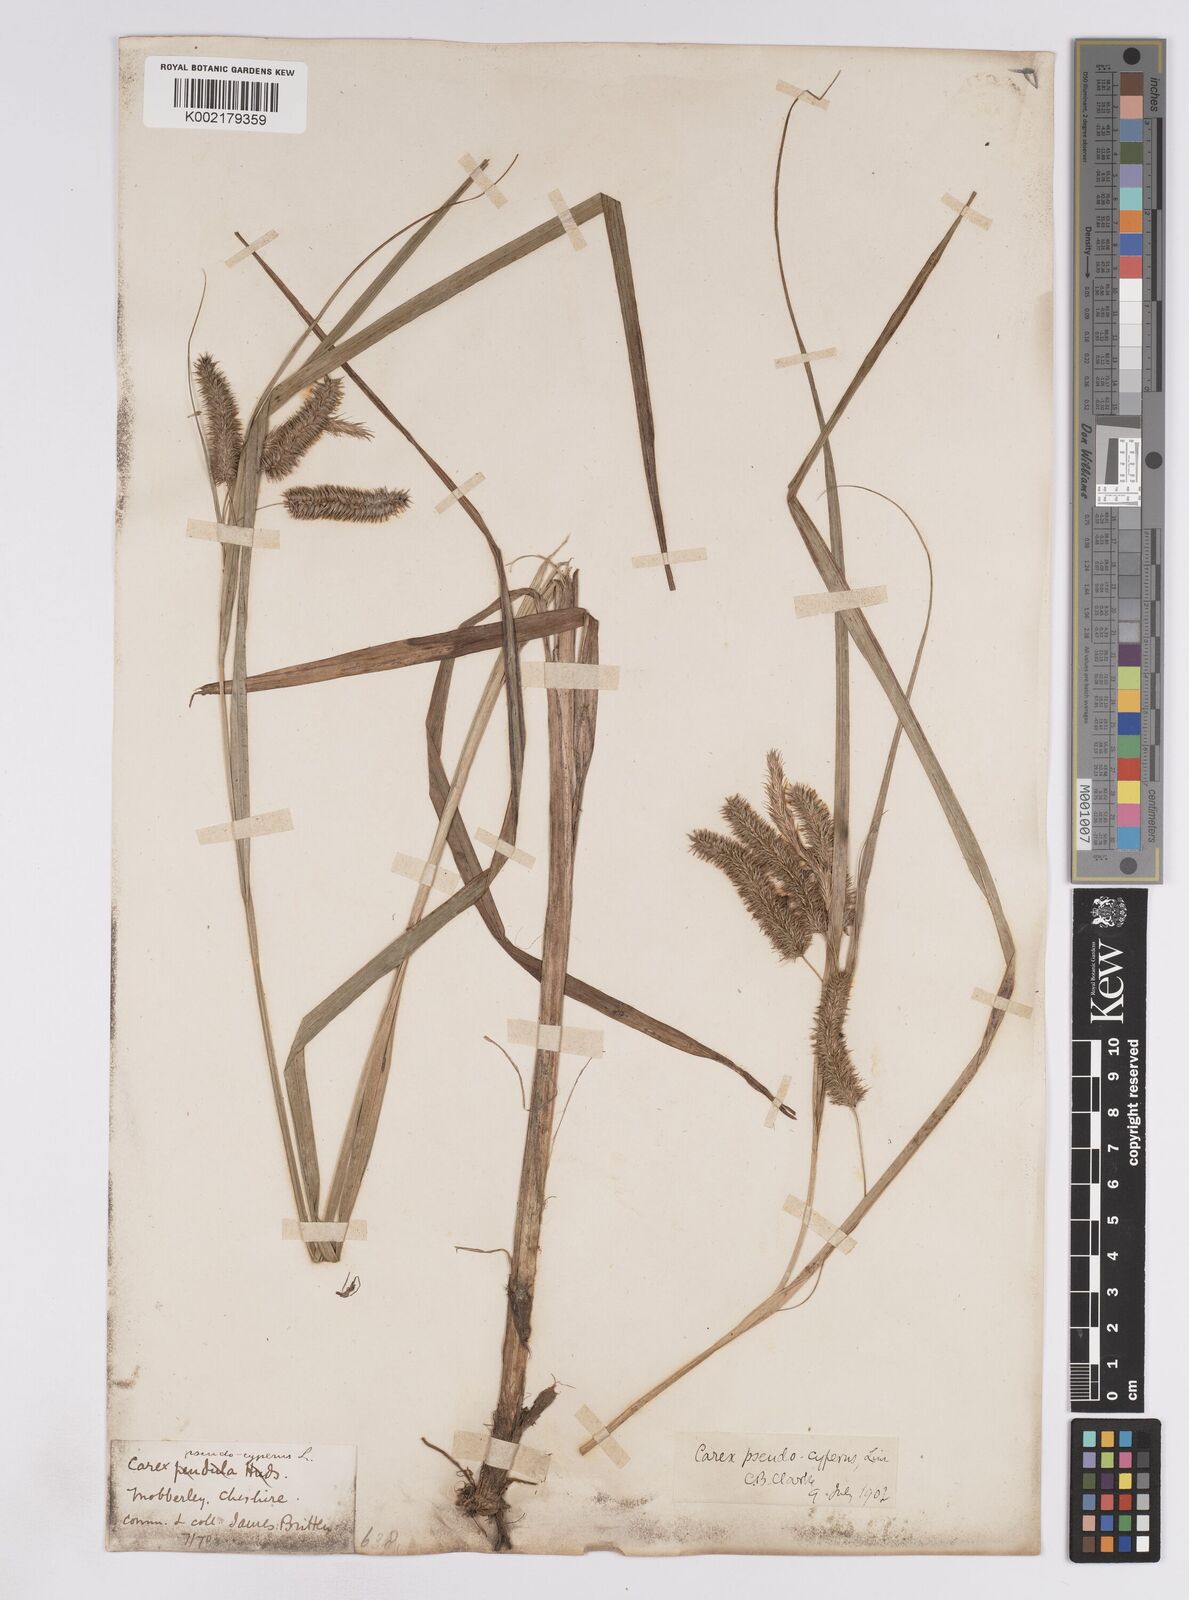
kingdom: Plantae
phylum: Tracheophyta
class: Liliopsida
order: Poales
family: Cyperaceae
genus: Carex
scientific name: Carex pseudocyperus
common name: Cyperus sedge
